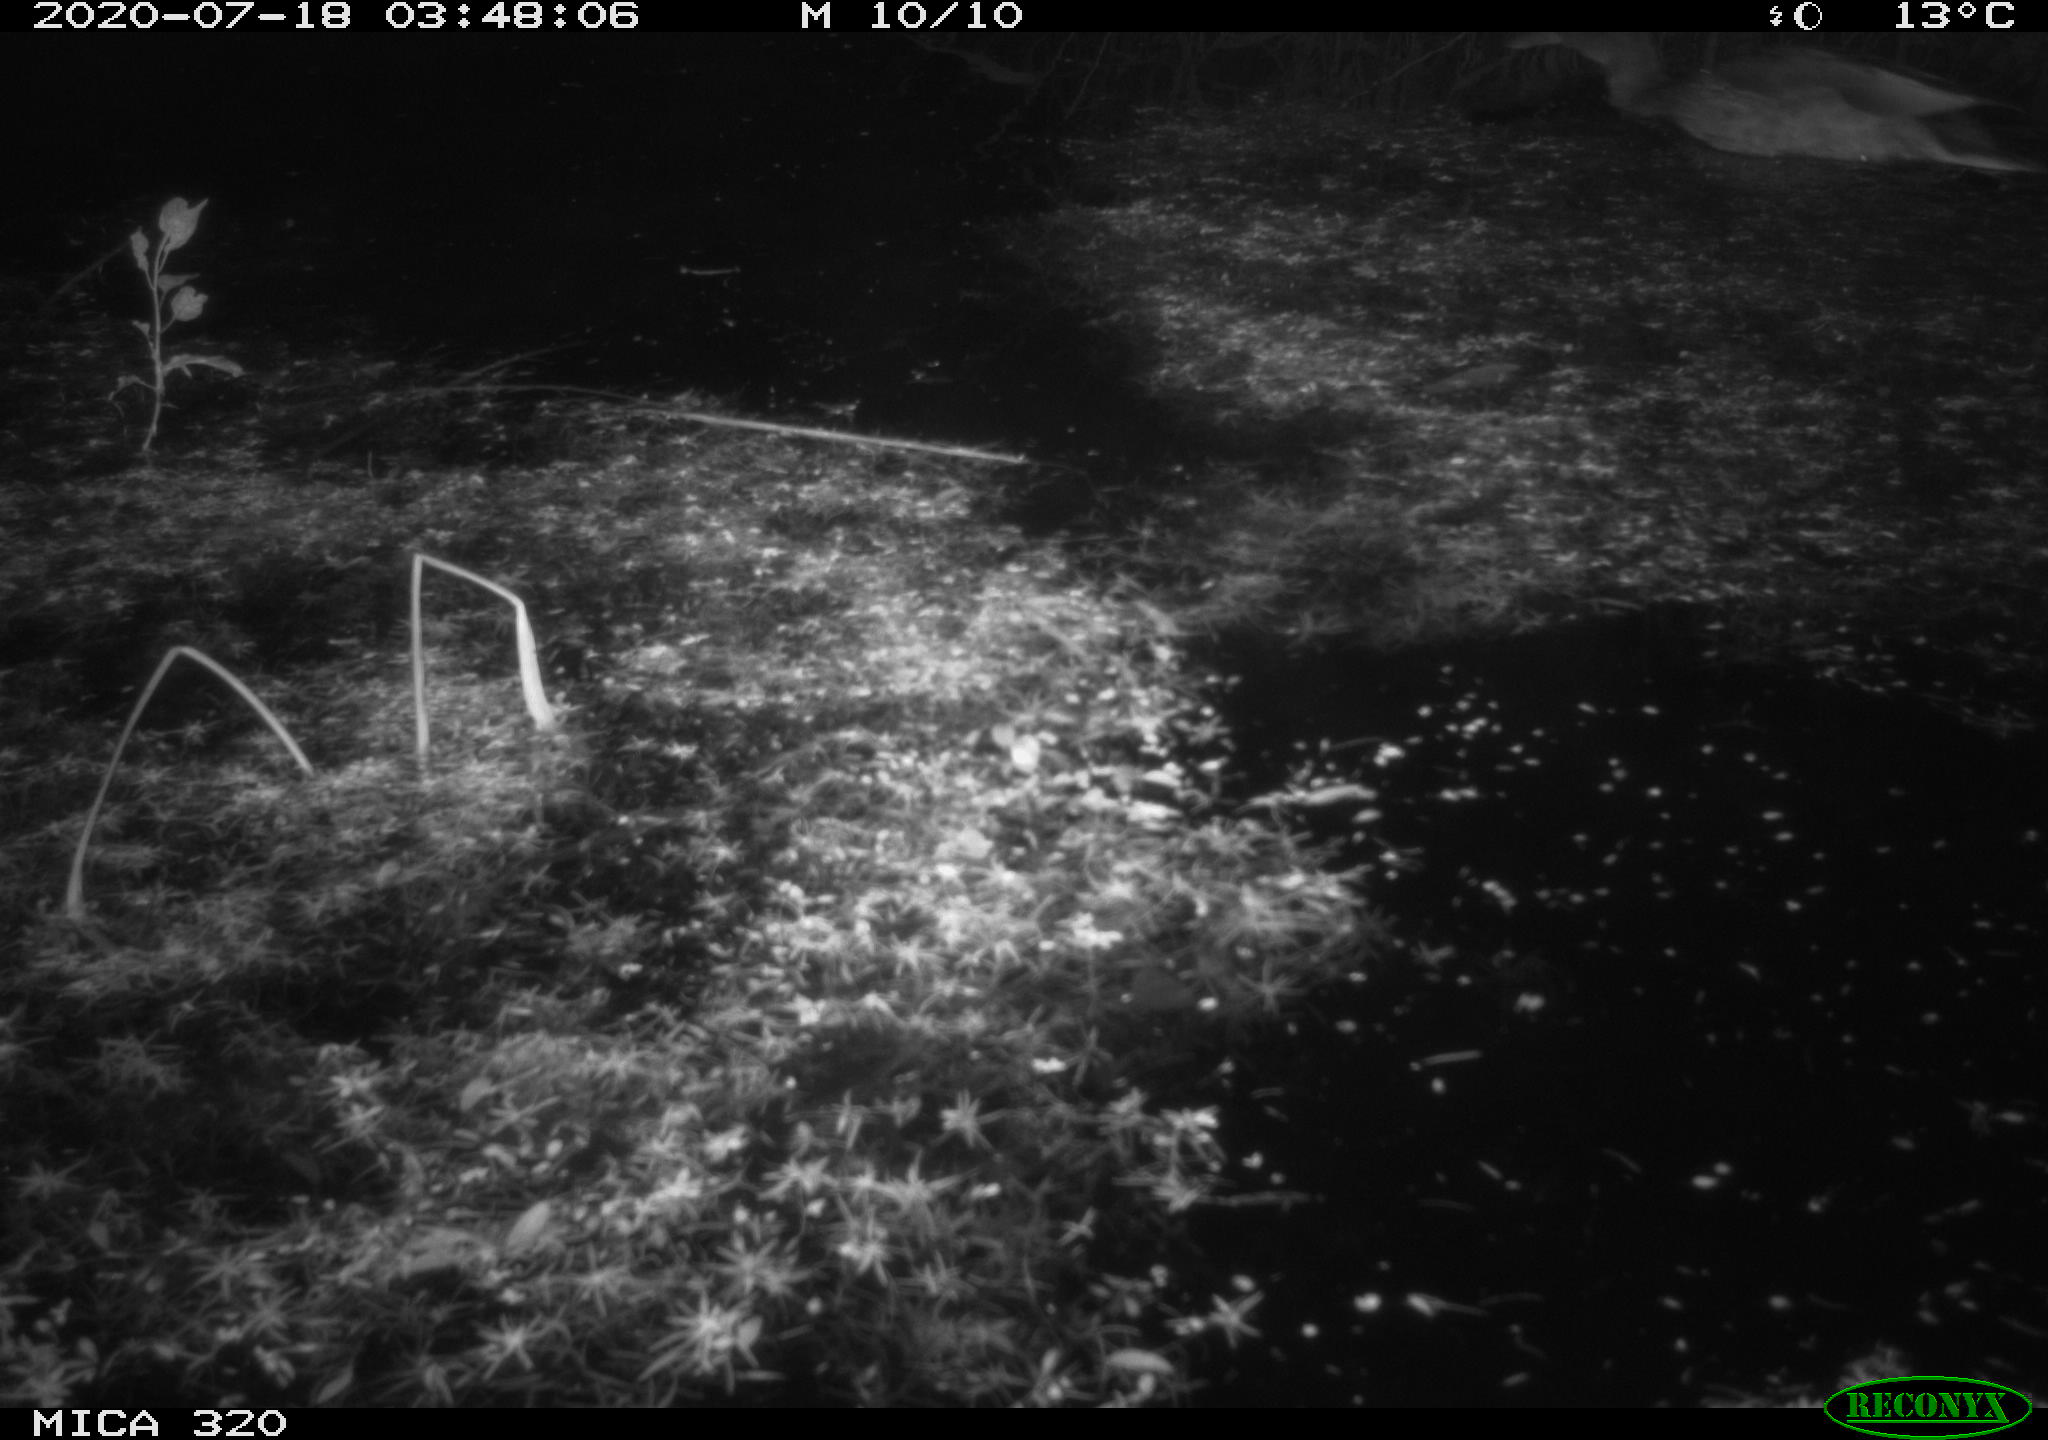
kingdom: Animalia
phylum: Chordata
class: Aves
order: Anseriformes
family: Anatidae
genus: Anas
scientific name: Anas platyrhynchos
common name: Mallard
